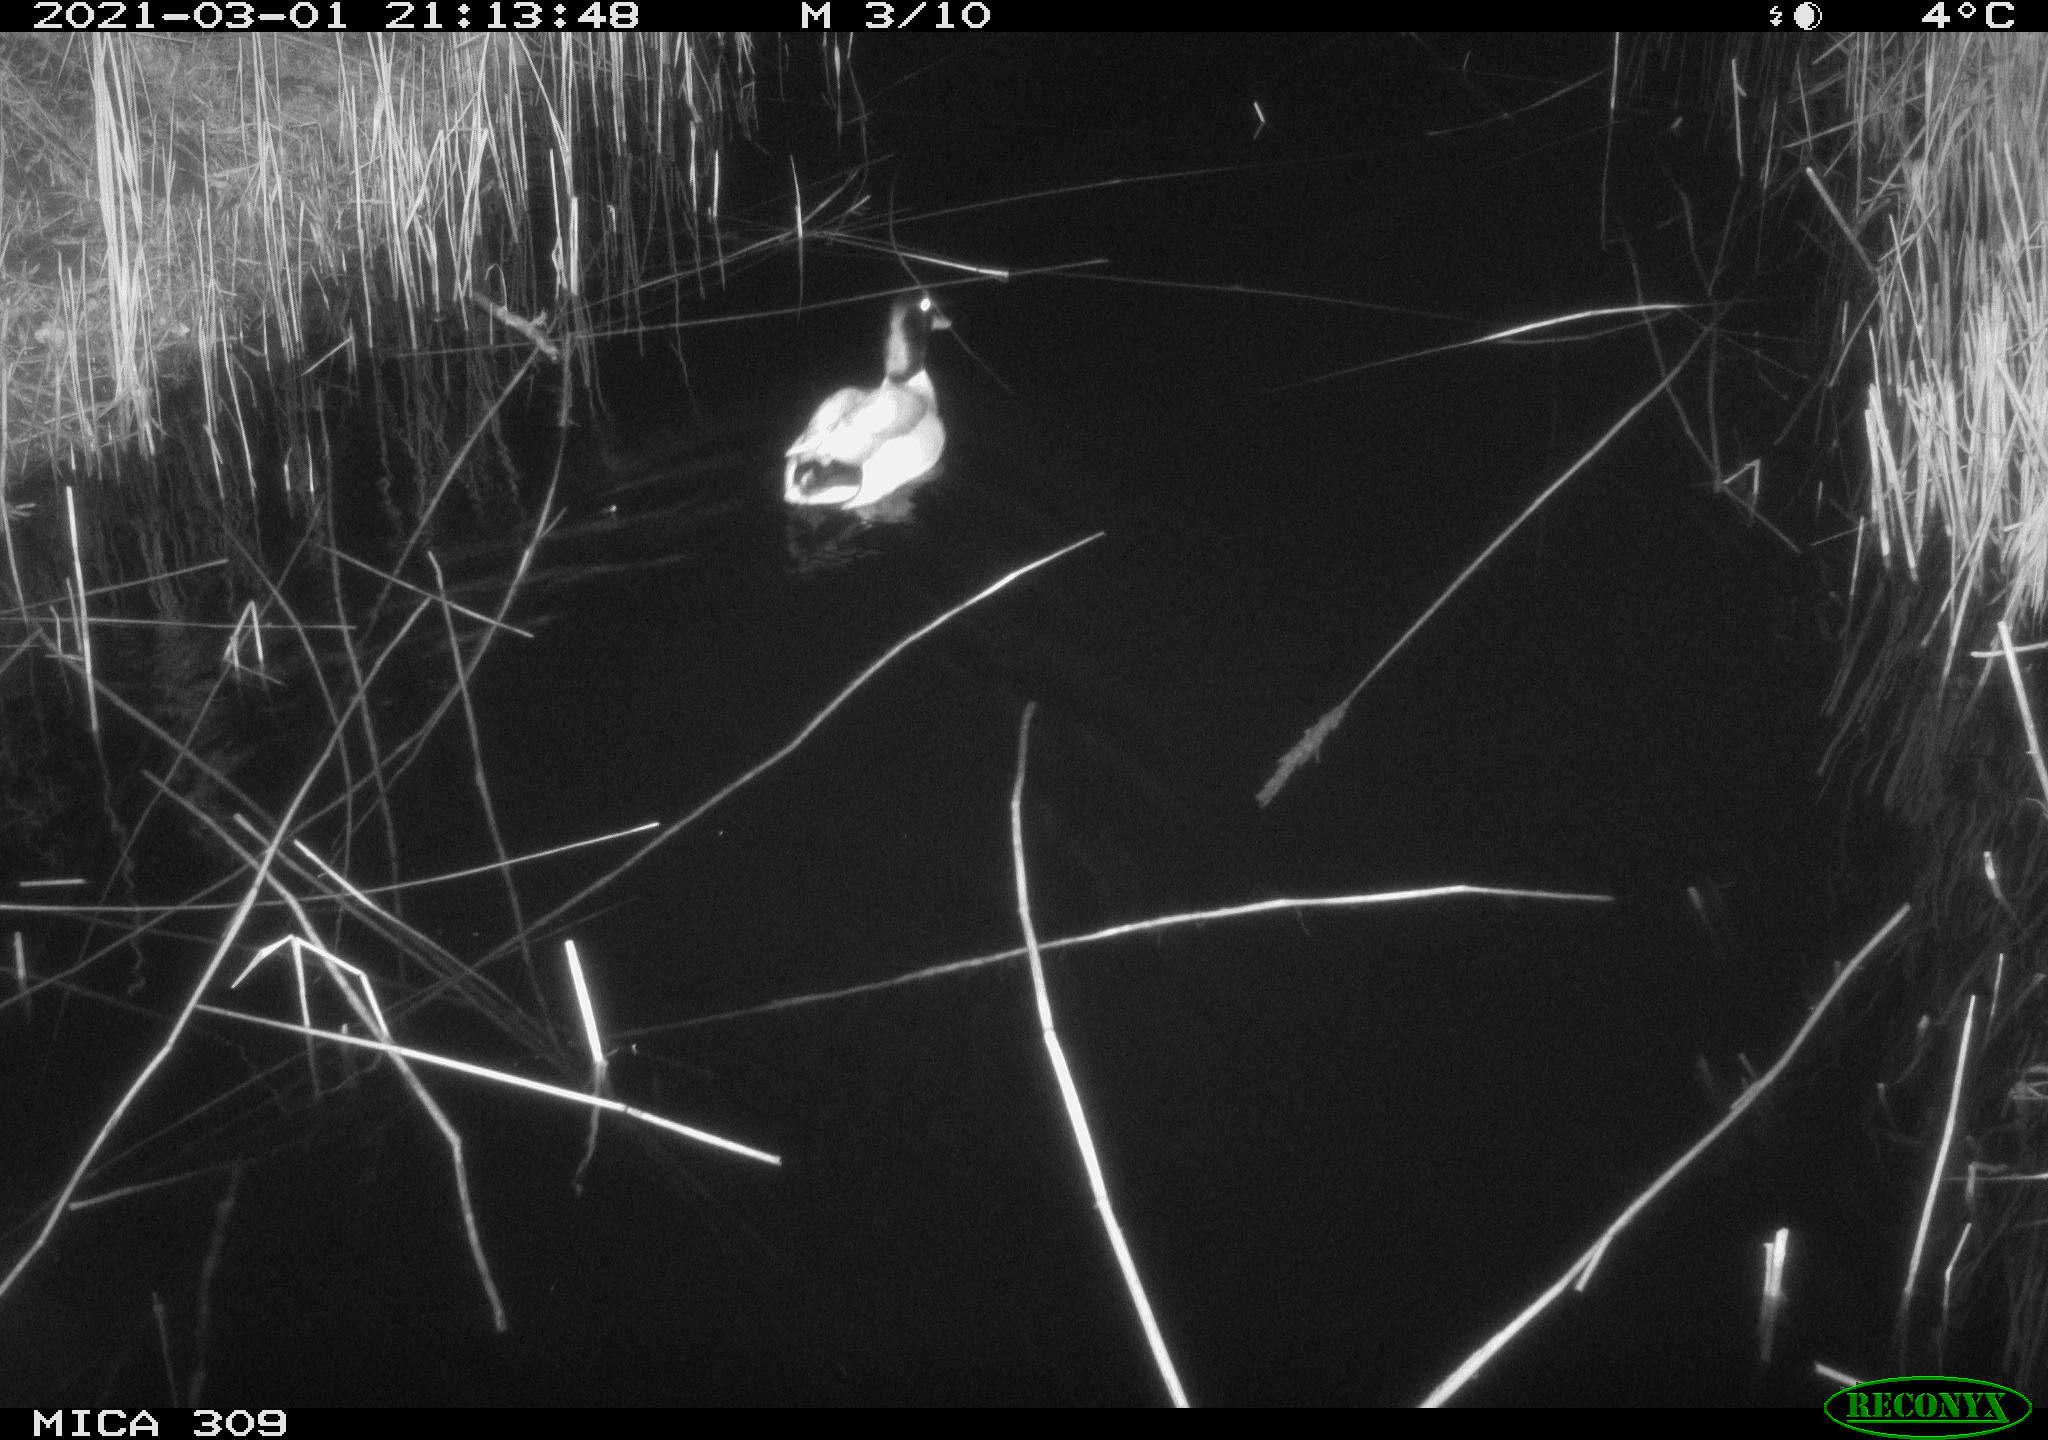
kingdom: Animalia
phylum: Chordata
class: Aves
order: Anseriformes
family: Anatidae
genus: Anas
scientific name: Anas platyrhynchos
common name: Mallard
